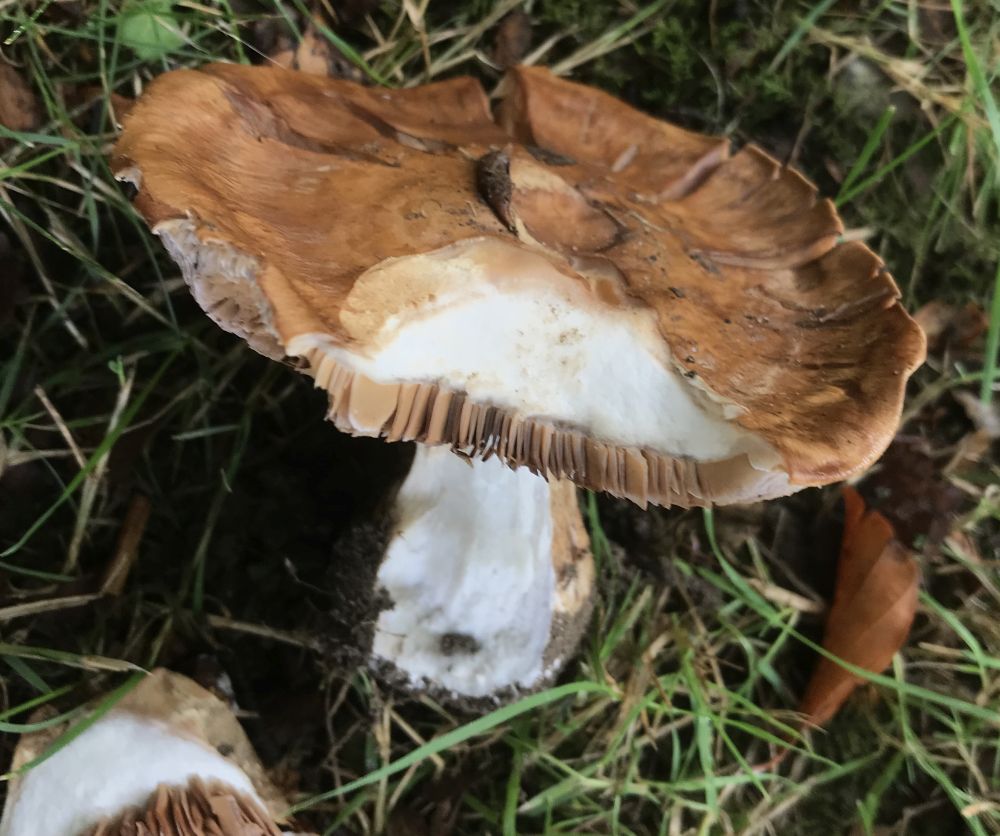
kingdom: Fungi
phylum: Basidiomycota
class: Agaricomycetes
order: Agaricales
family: Cortinariaceae
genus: Phlegmacium
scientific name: Phlegmacium balteatocumatile
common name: violettrådet slørhat
